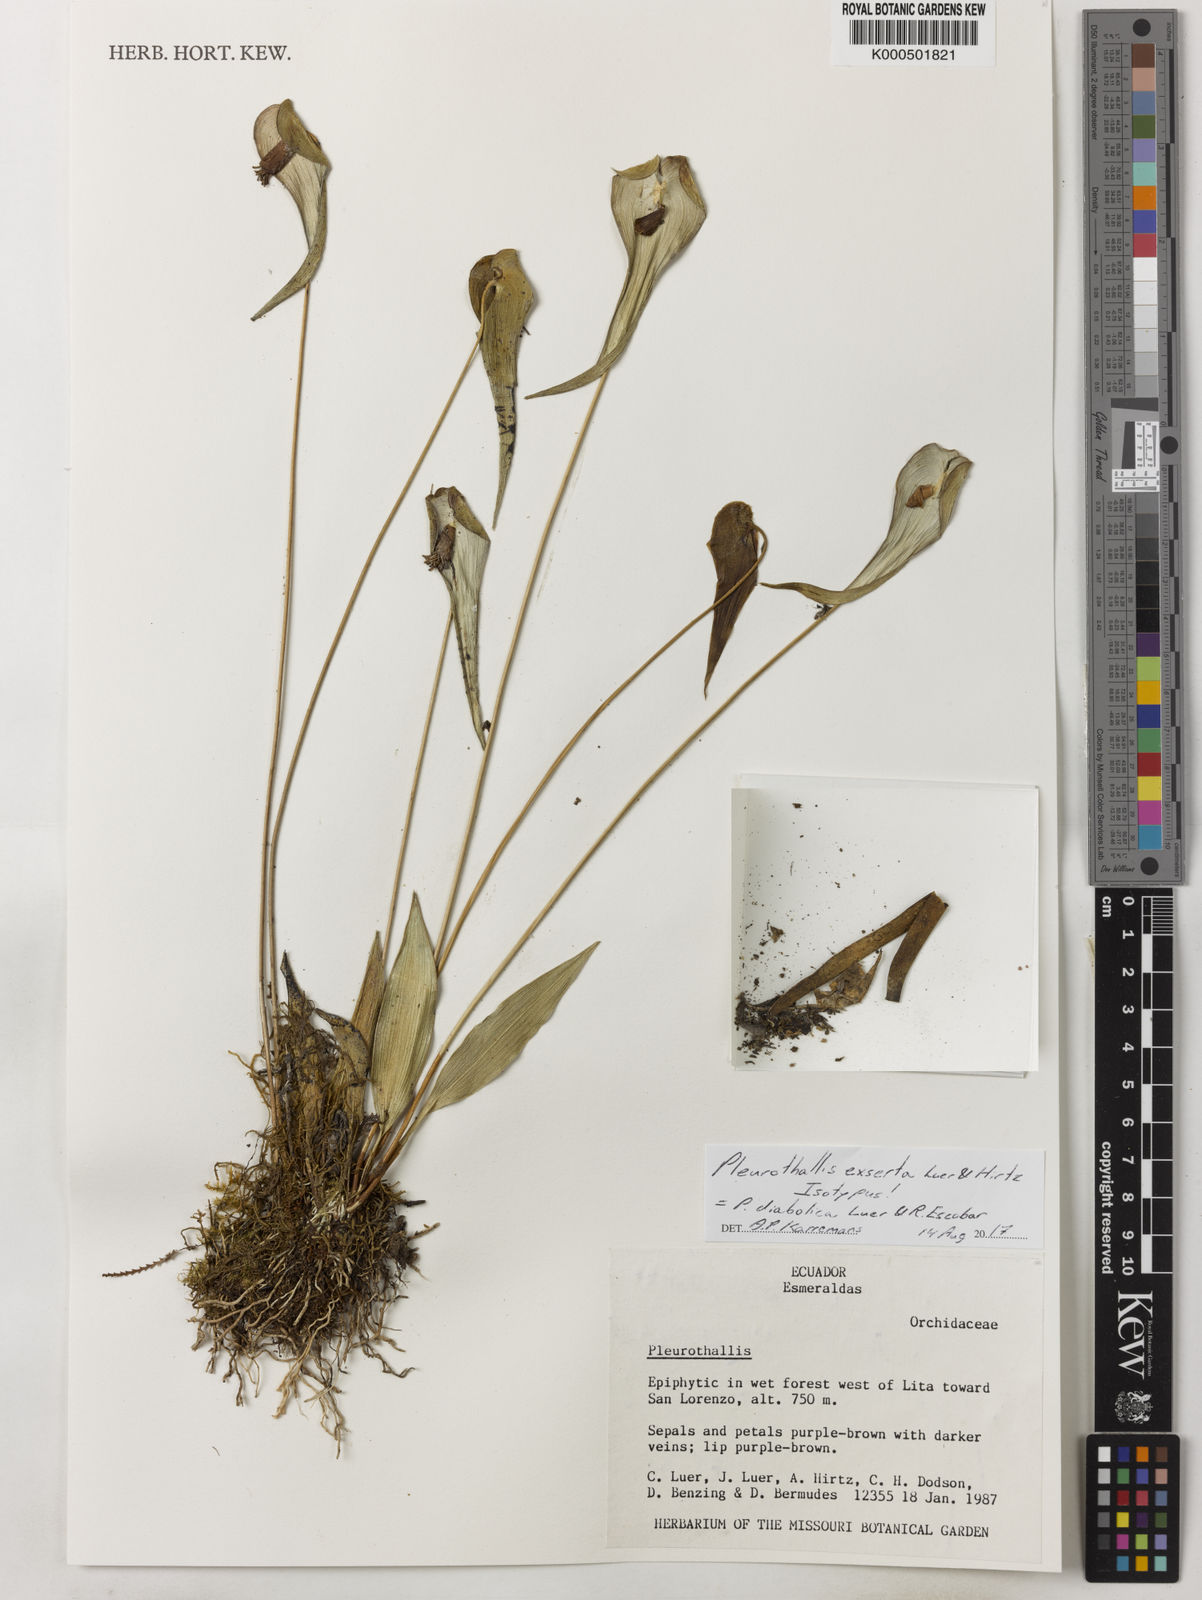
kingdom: Plantae
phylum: Tracheophyta
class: Liliopsida
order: Asparagales
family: Orchidaceae
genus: Pleurothallis
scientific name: Pleurothallis diabolica
